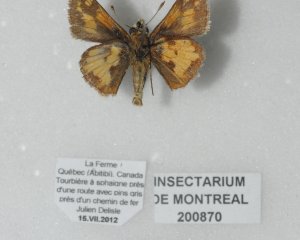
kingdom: Animalia
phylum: Arthropoda
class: Insecta
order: Lepidoptera
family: Hesperiidae
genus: Polites
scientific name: Polites coras
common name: Peck's Skipper
